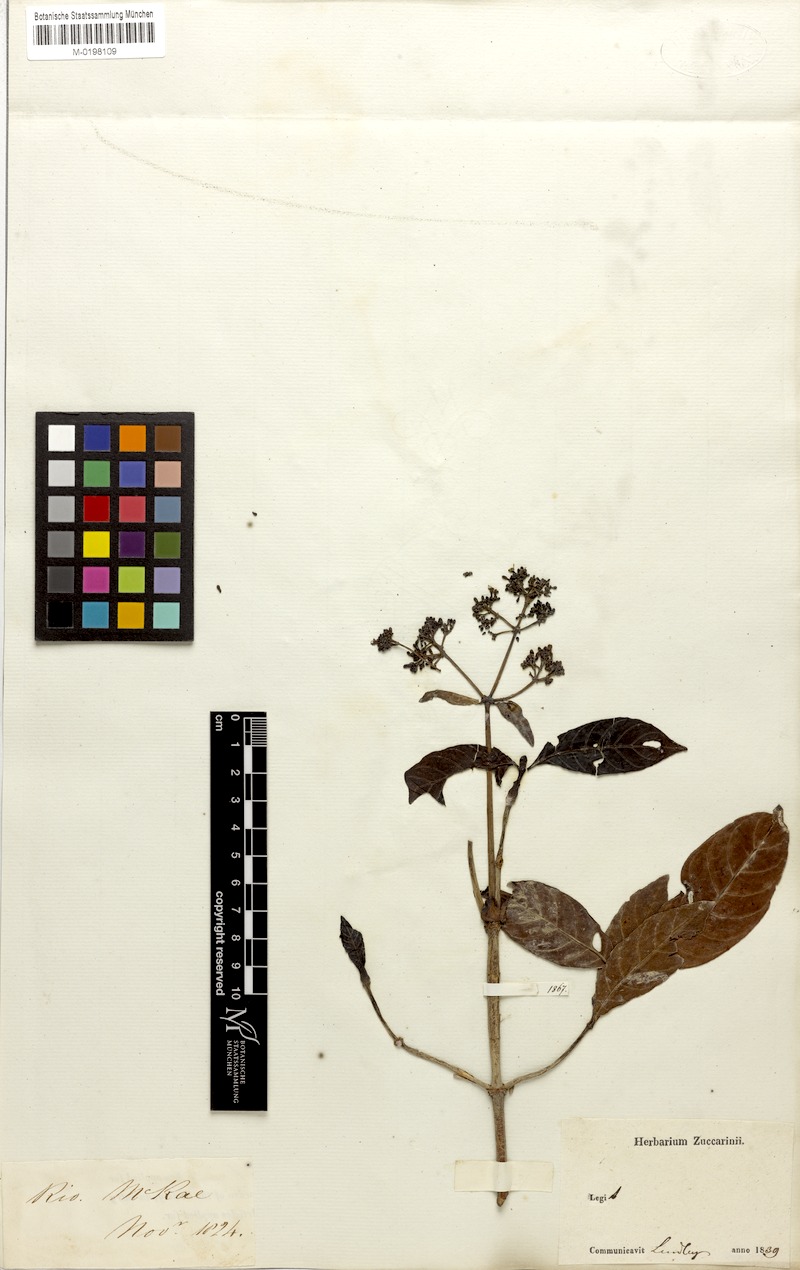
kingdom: Plantae
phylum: Tracheophyta
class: Magnoliopsida
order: Gentianales
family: Rubiaceae
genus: Psychotria
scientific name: Psychotria alba
